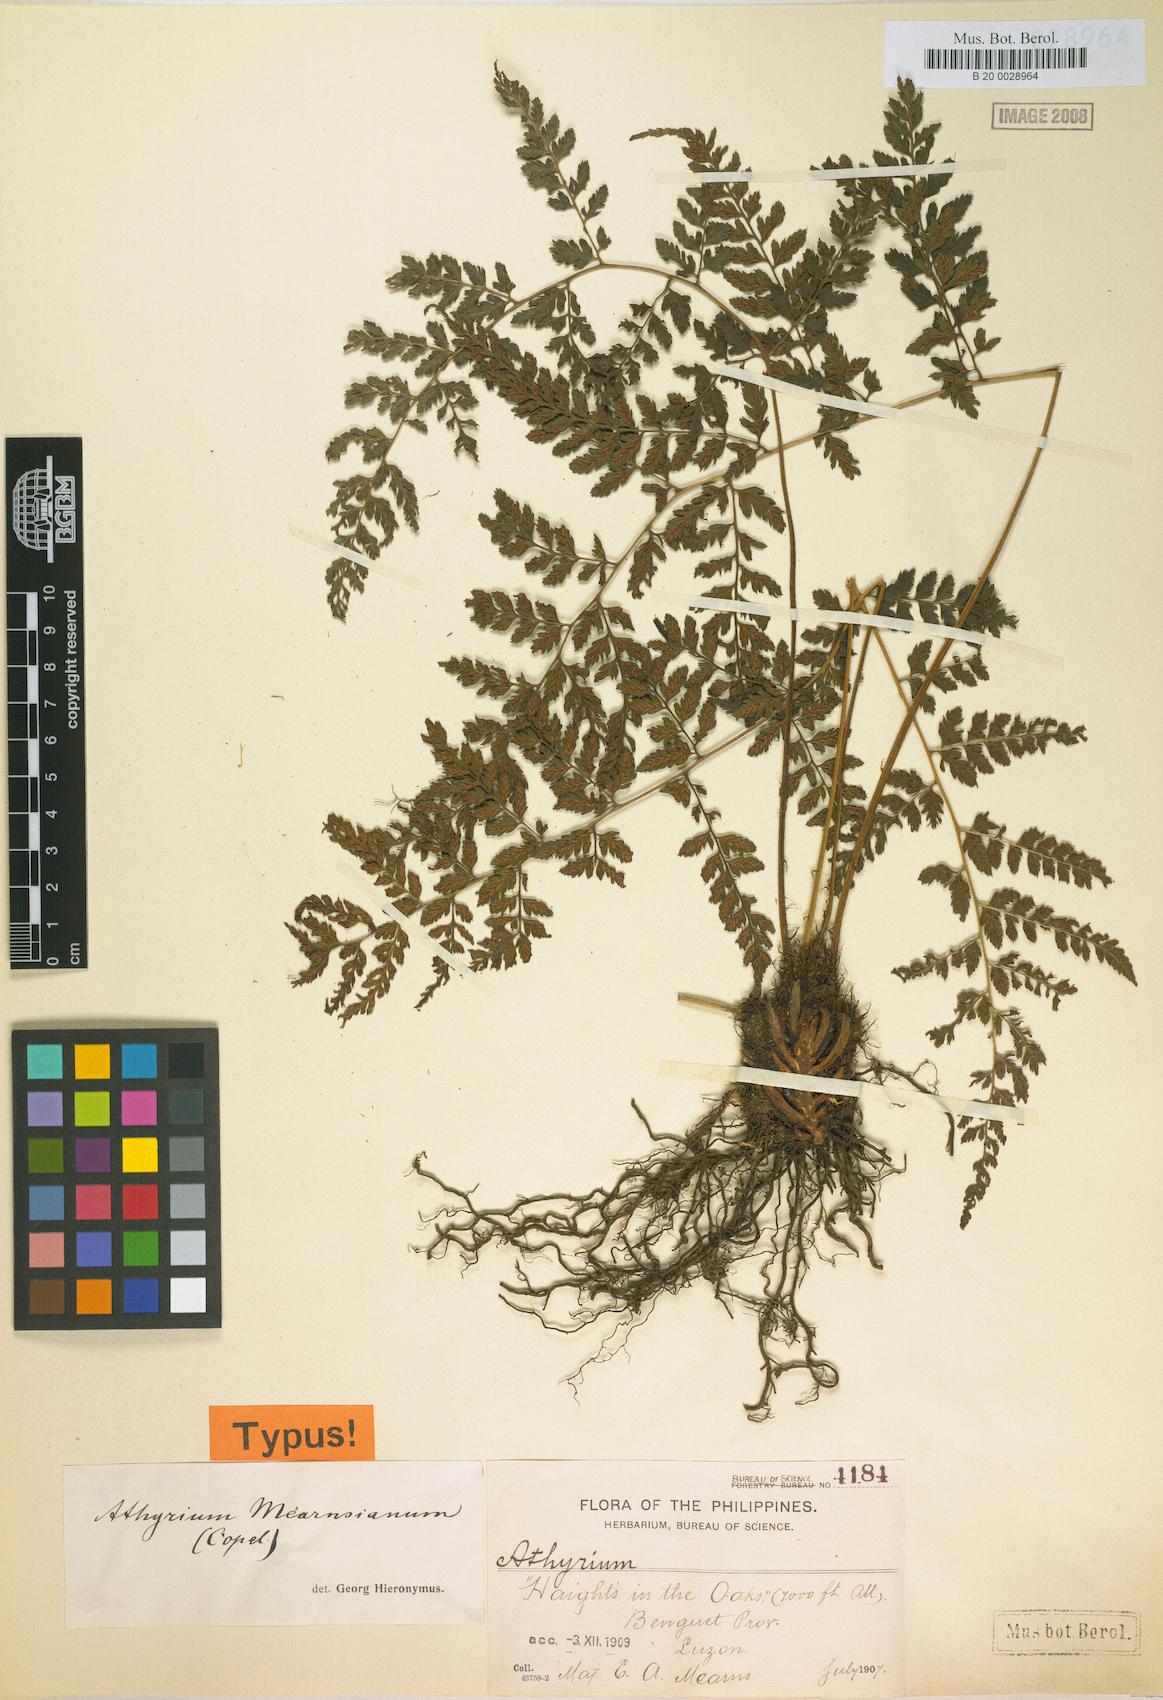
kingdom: Plantae
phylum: Tracheophyta
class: Polypodiopsida
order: Polypodiales
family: Athyriaceae
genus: Athyrium
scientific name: Athyrium nitidulum
